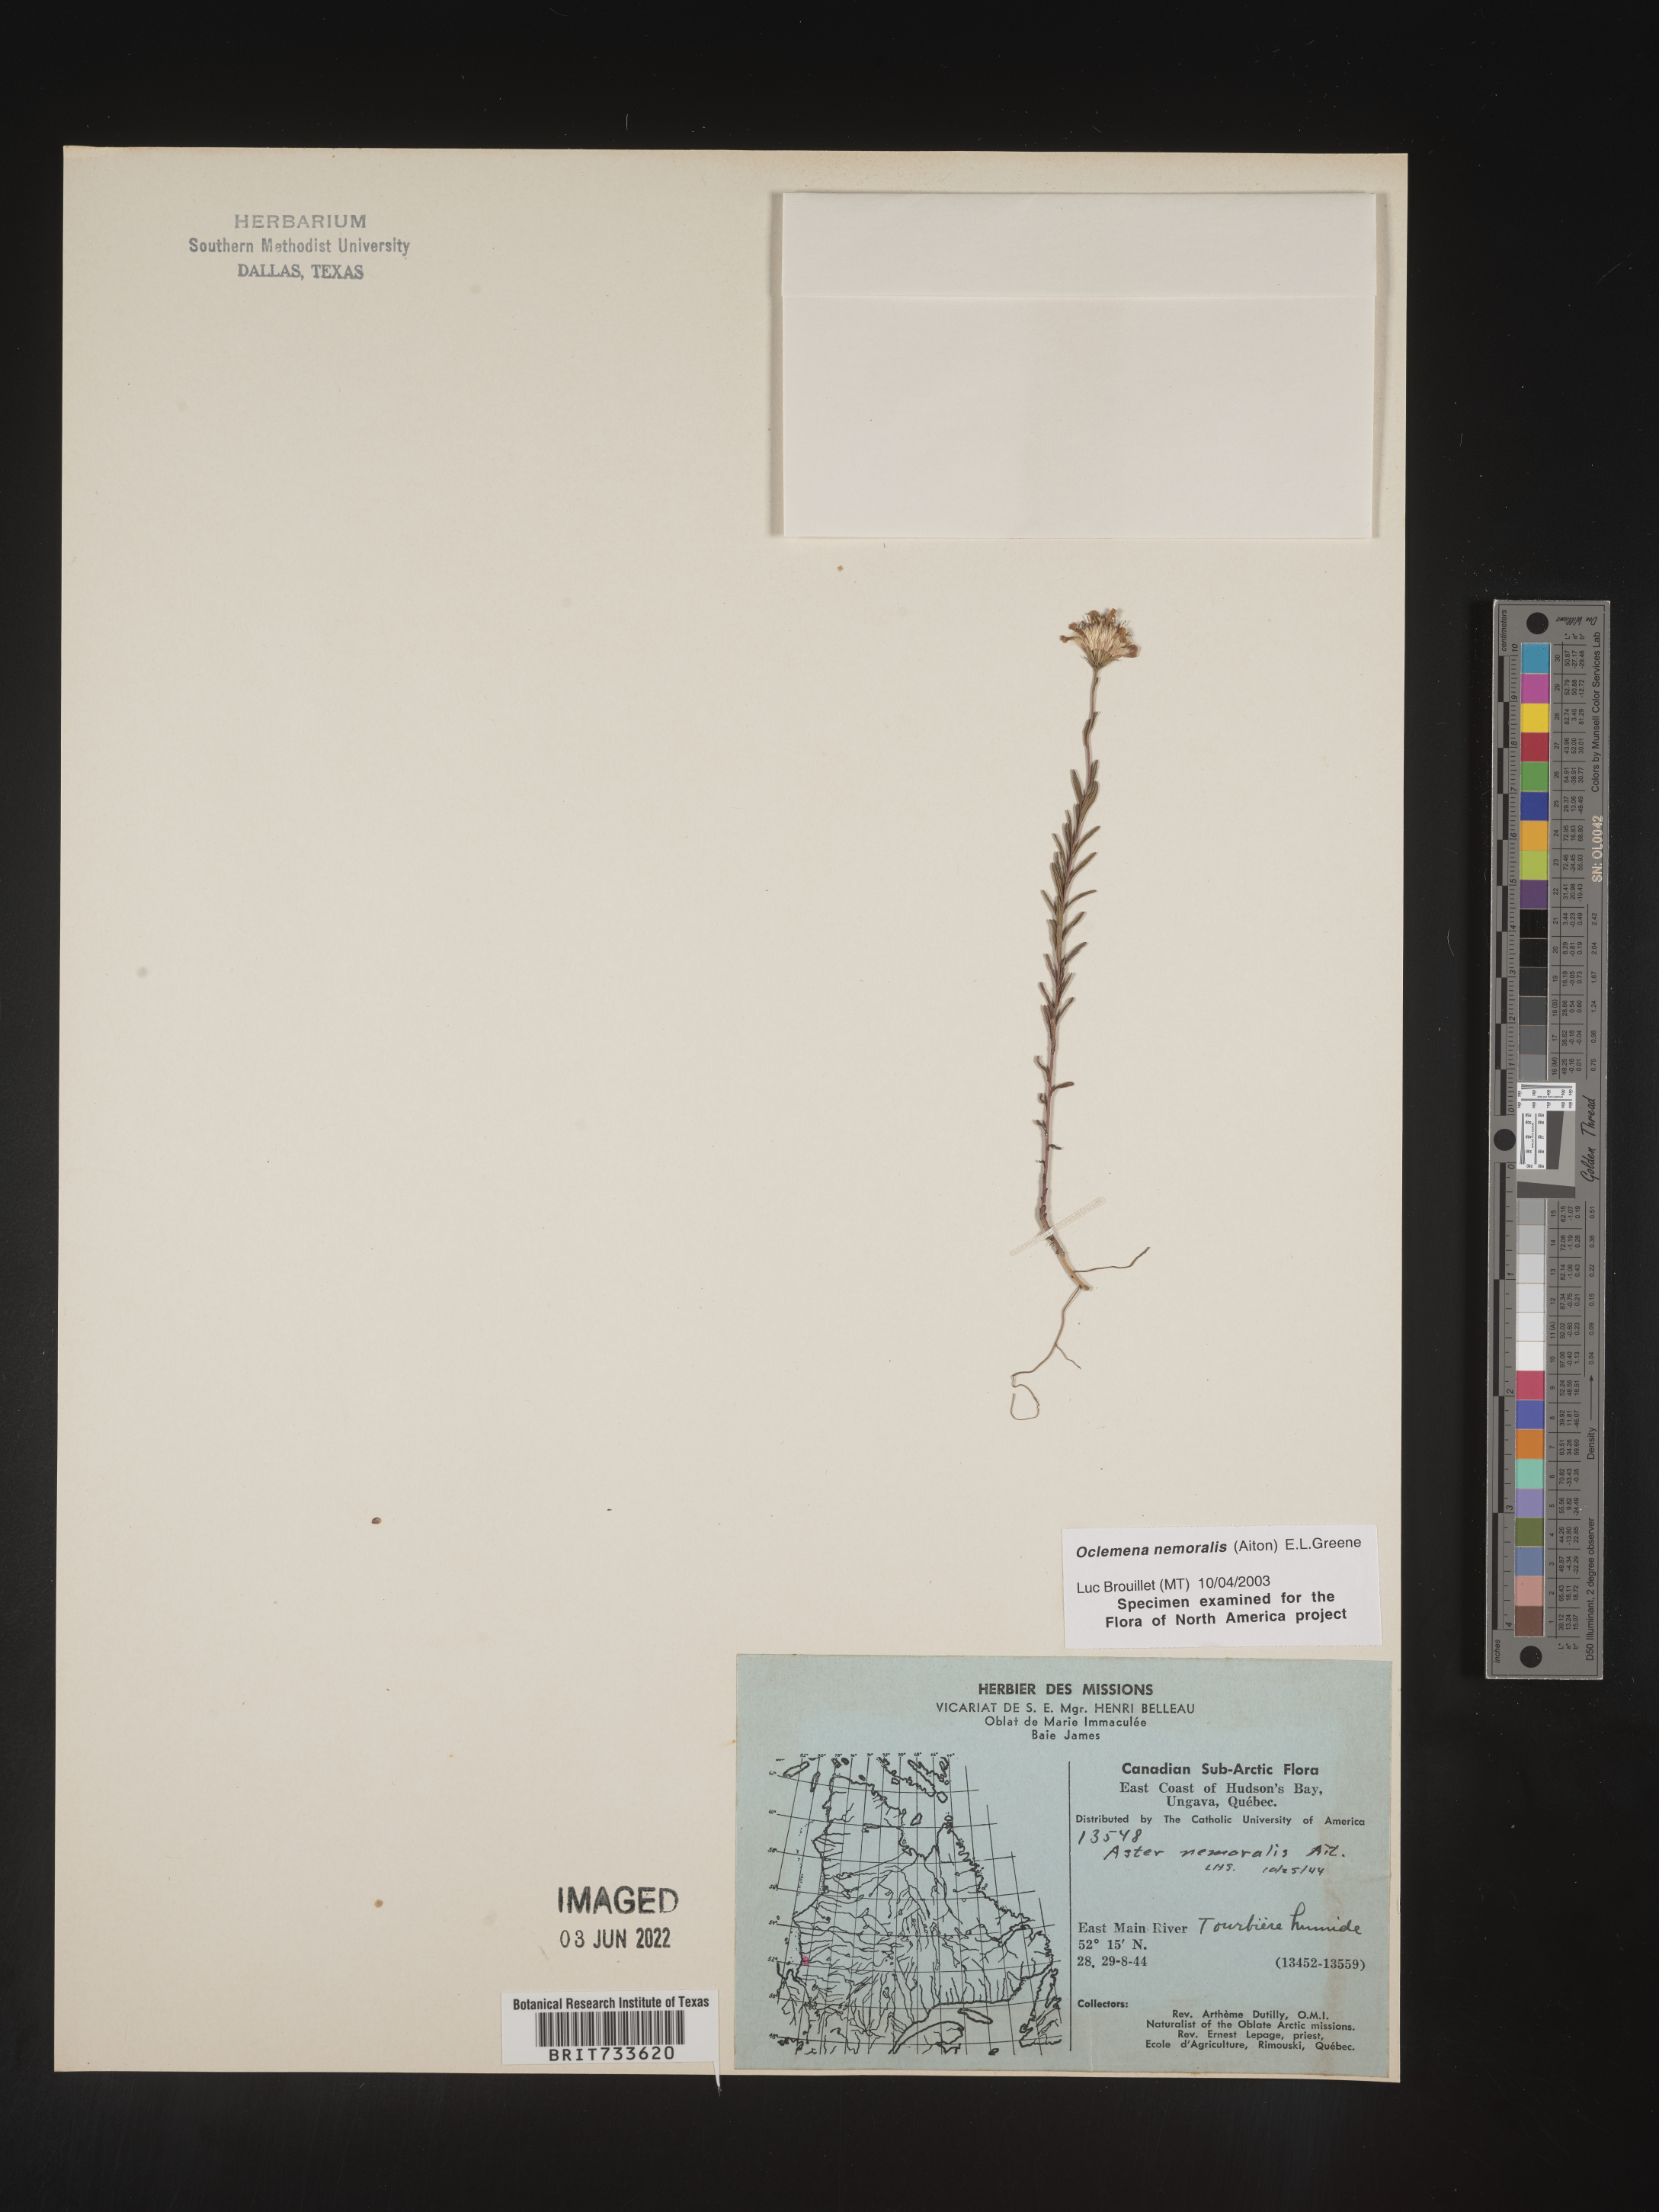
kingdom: Plantae
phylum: Tracheophyta
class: Magnoliopsida
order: Asterales
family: Asteraceae
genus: Oclemena
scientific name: Oclemena nemoralis
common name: Bog aster
